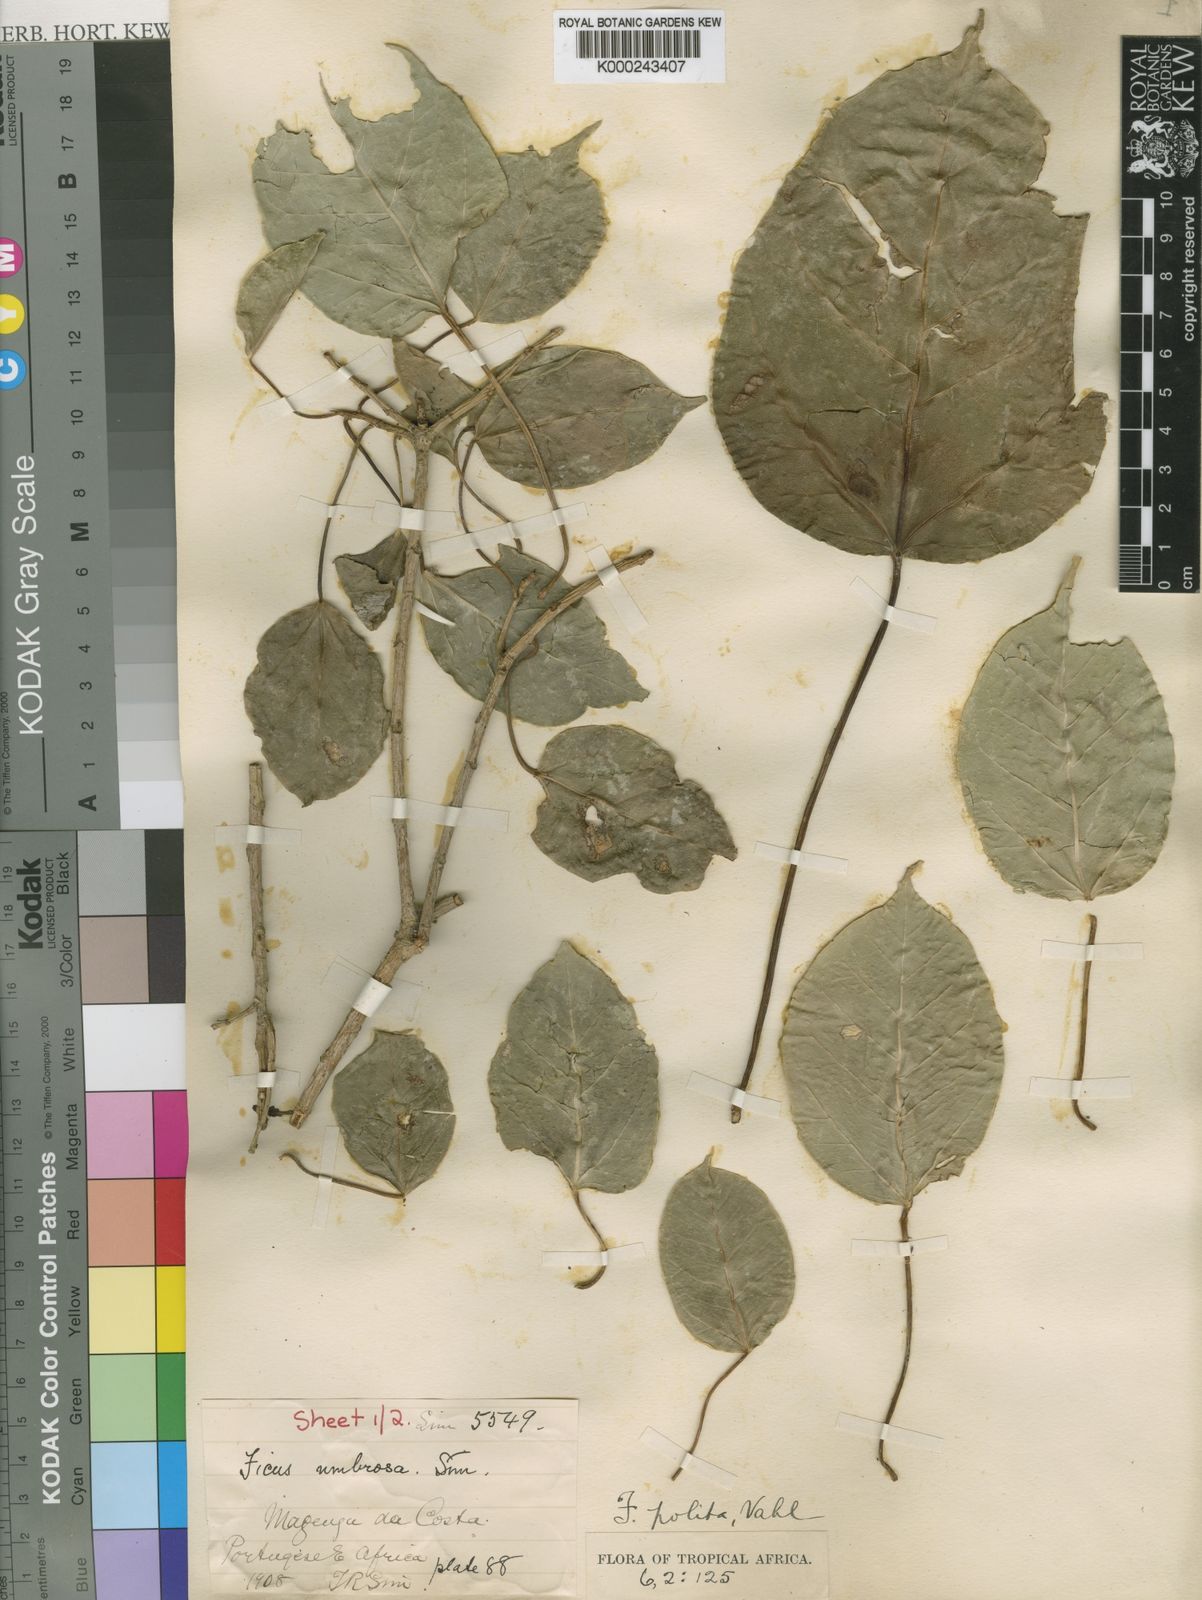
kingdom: Plantae
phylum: Tracheophyta
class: Magnoliopsida
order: Rosales
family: Moraceae
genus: Ficus
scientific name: Ficus polita
